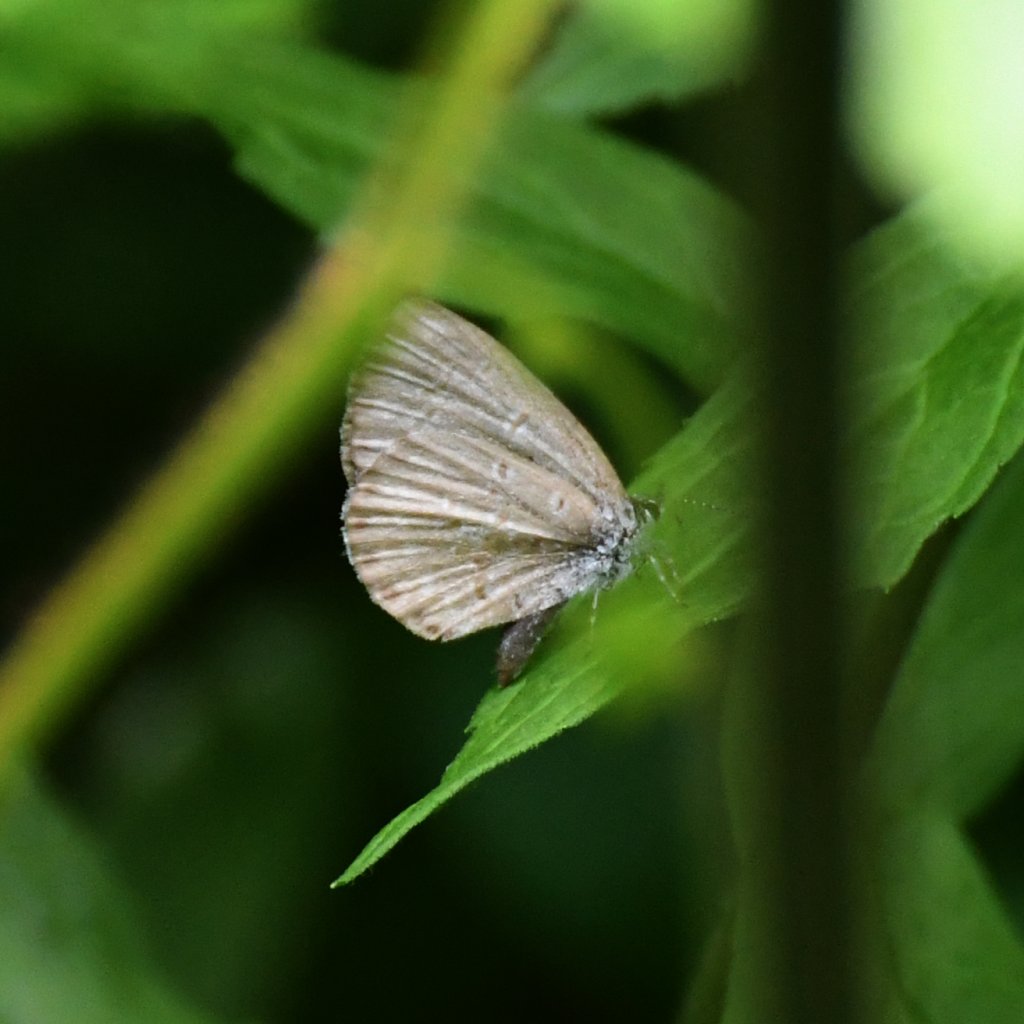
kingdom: Animalia
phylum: Arthropoda
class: Insecta
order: Lepidoptera
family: Lycaenidae
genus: Celastrina
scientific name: Celastrina lucia
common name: Northern Spring Azure
